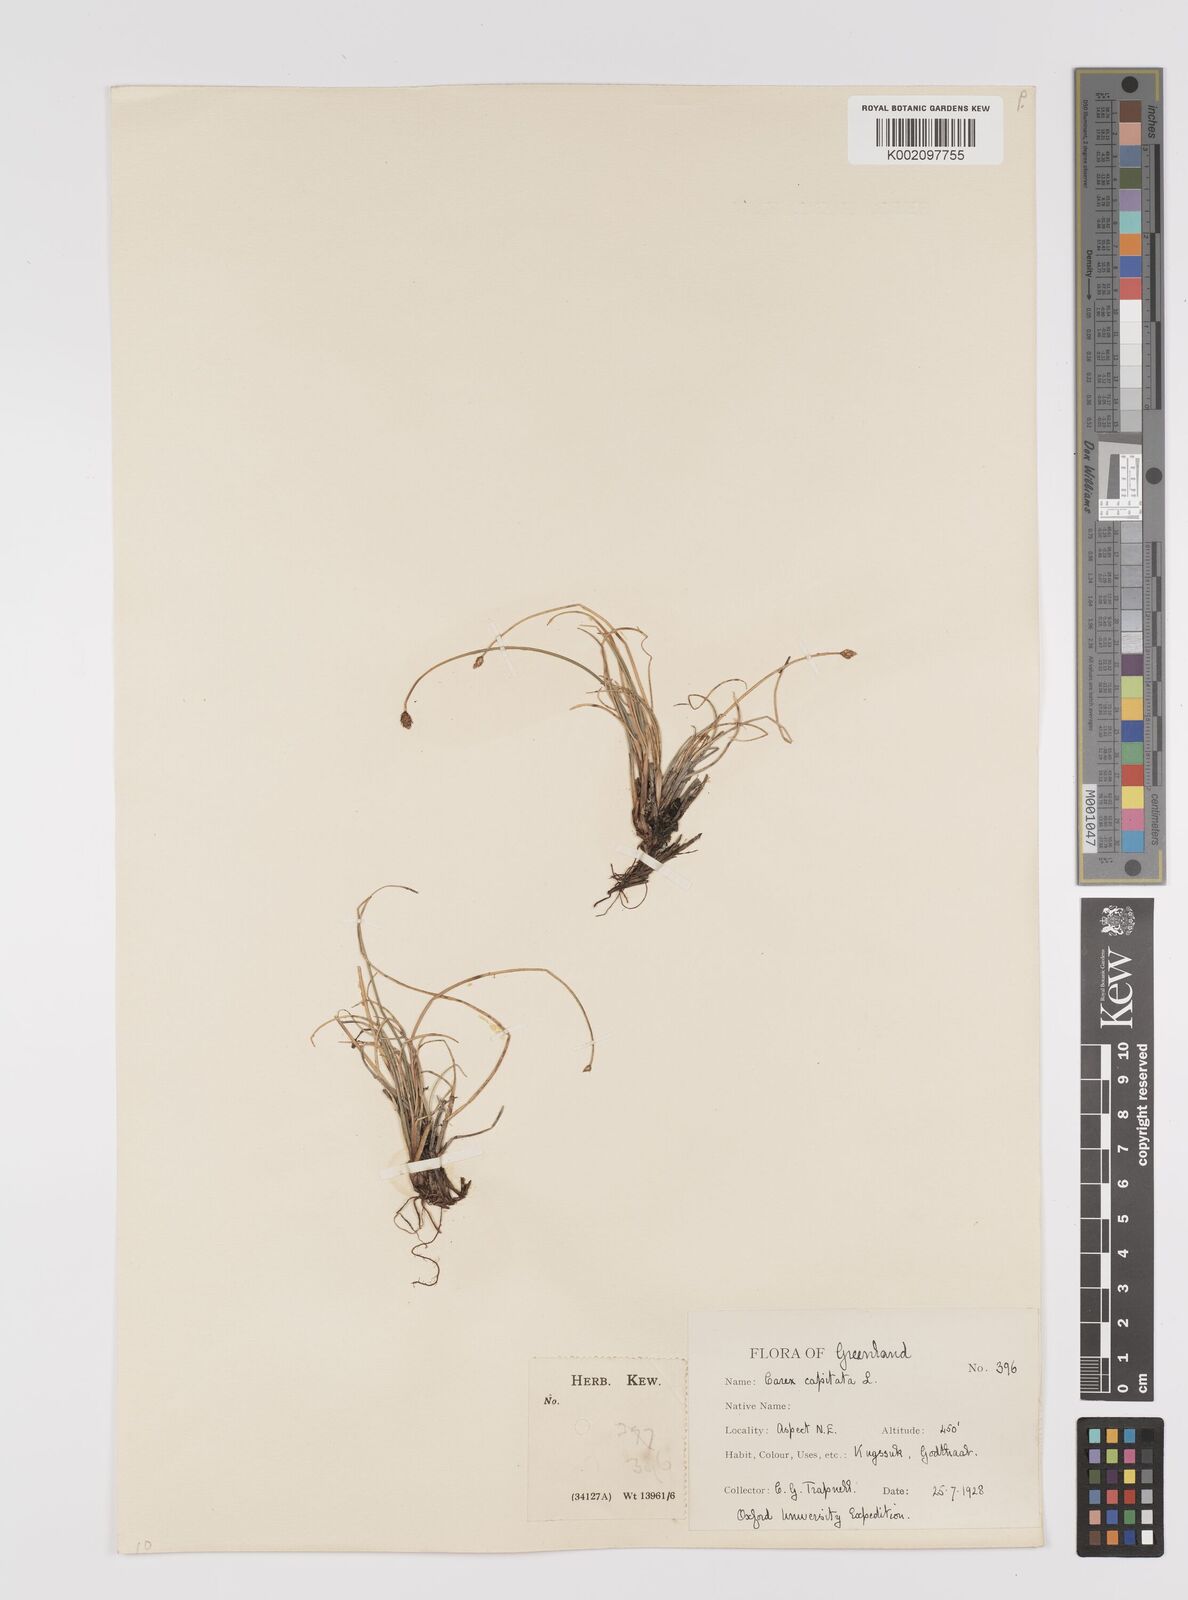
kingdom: Plantae
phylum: Tracheophyta
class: Liliopsida
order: Poales
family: Cyperaceae
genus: Carex
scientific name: Carex capitata
